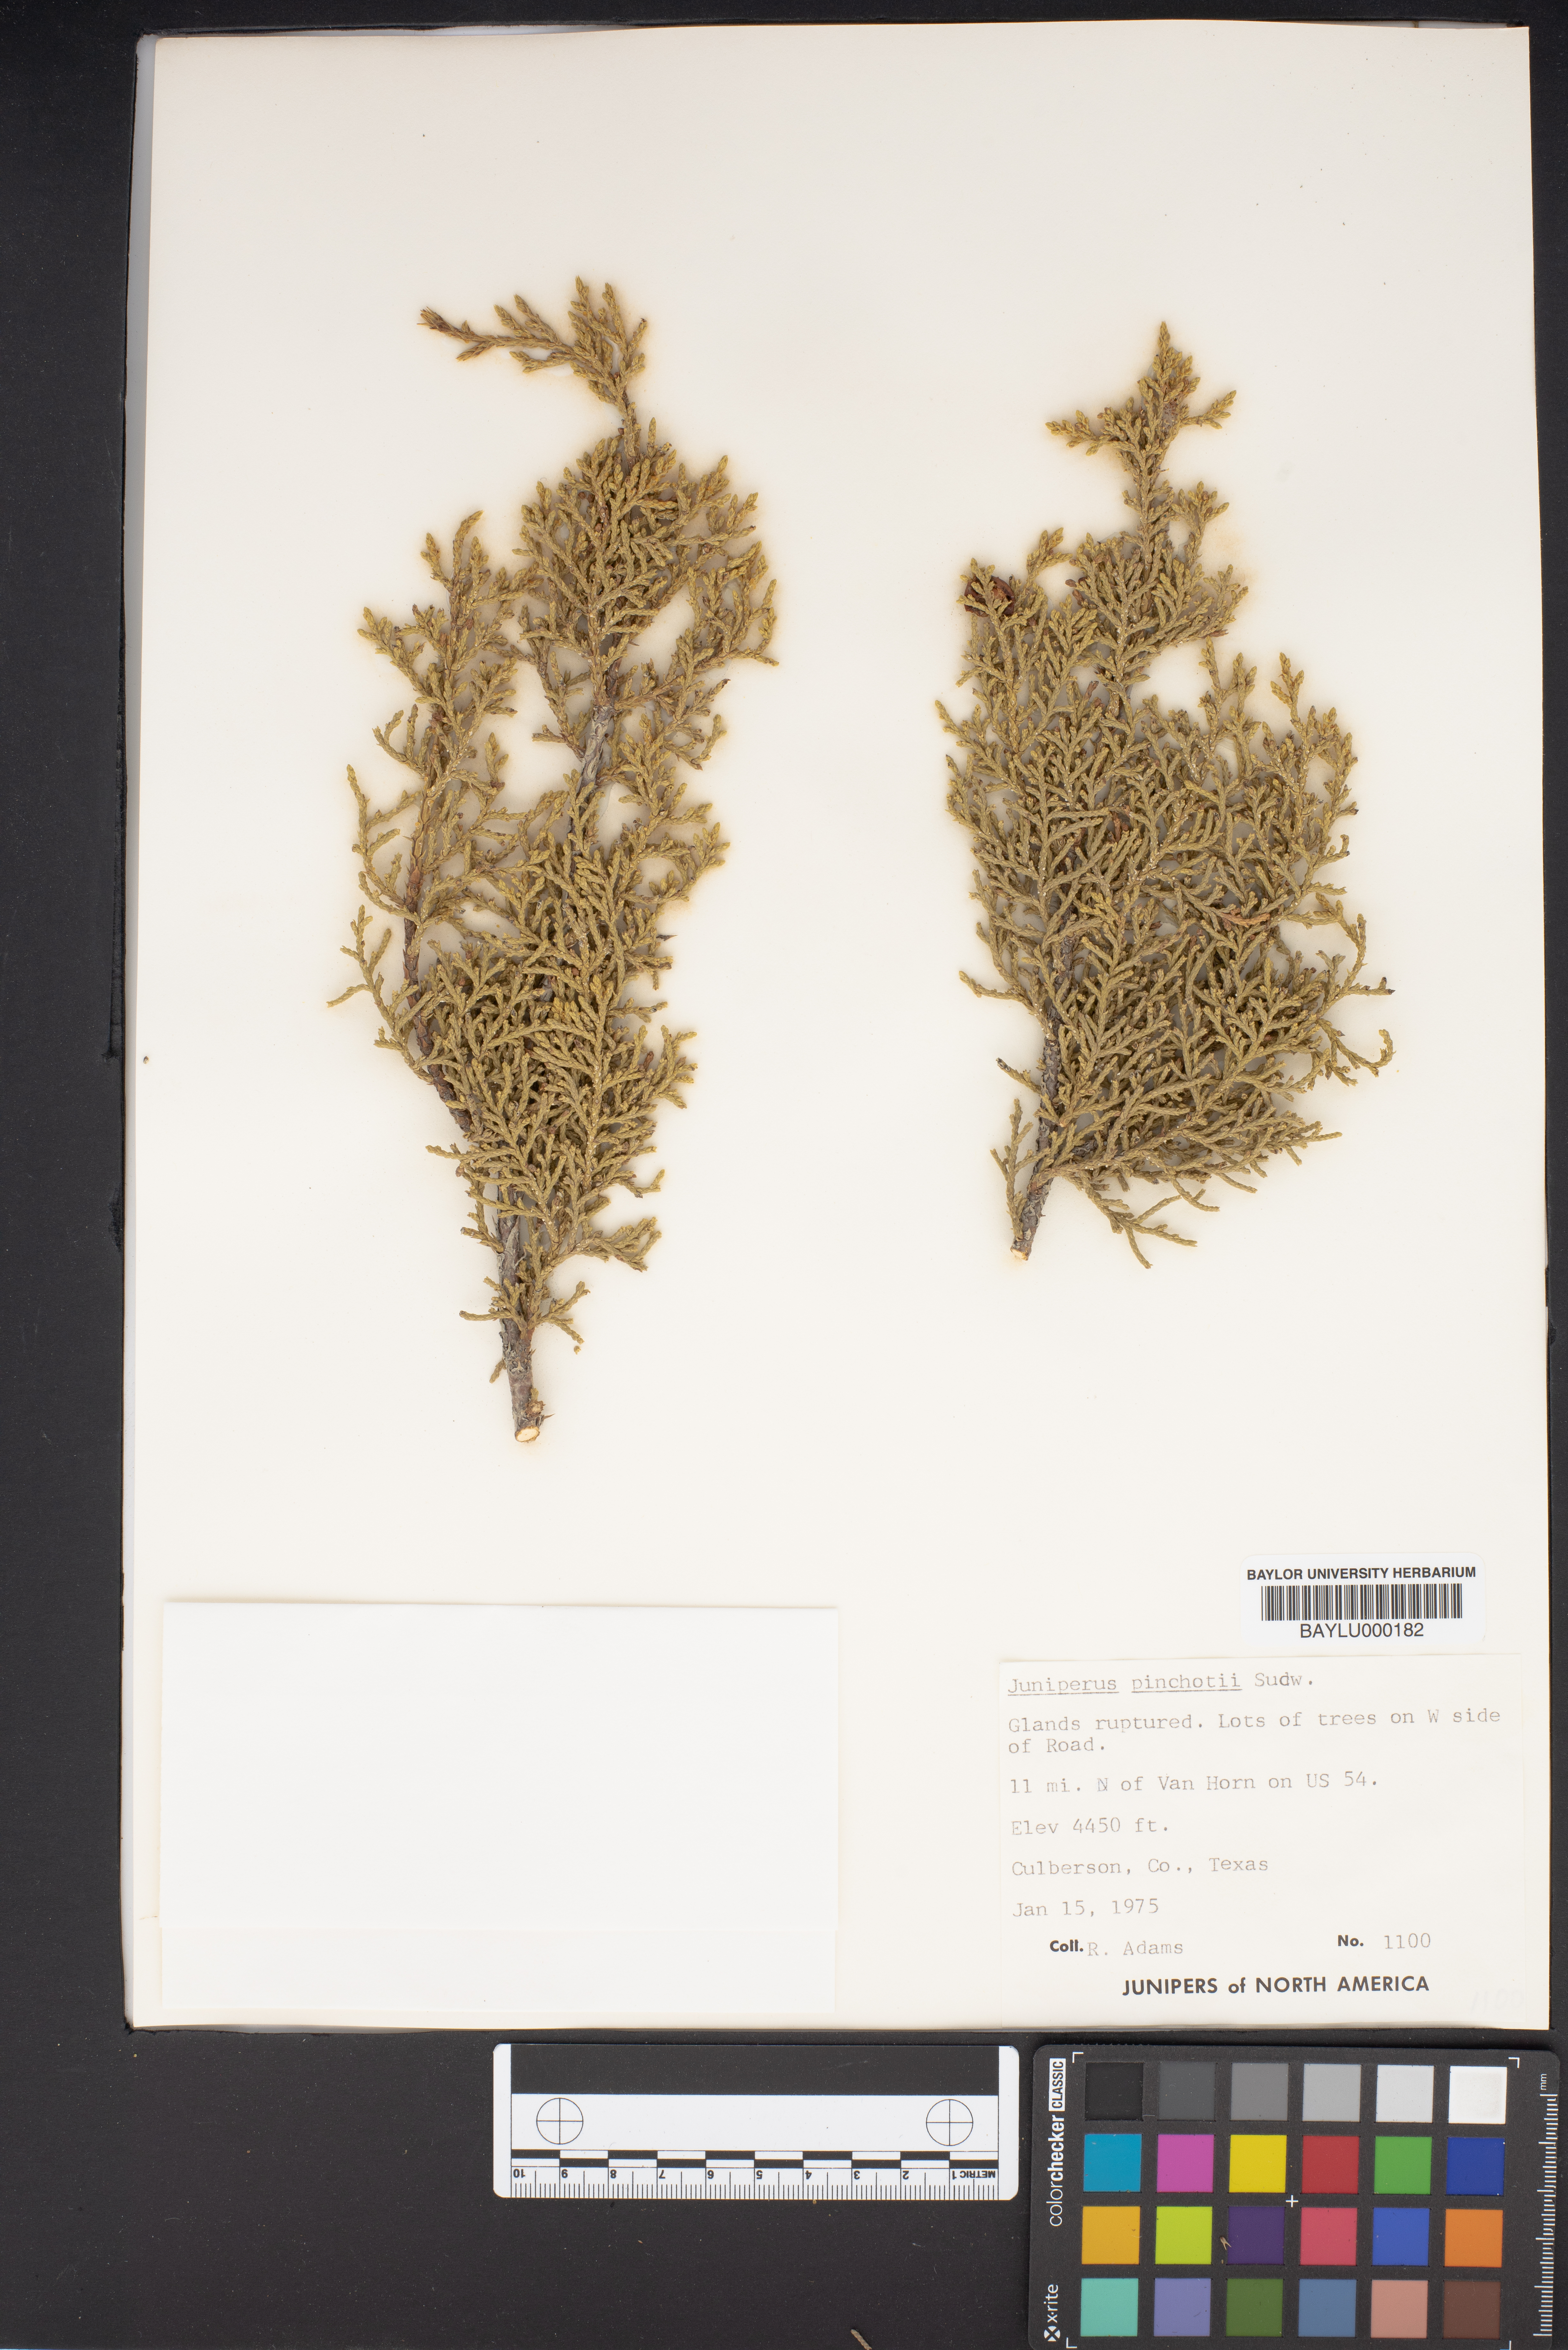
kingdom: Plantae
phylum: Tracheophyta
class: Pinopsida
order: Pinales
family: Cupressaceae
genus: Juniperus
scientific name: Juniperus pinchotii
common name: Pinchot juniper
